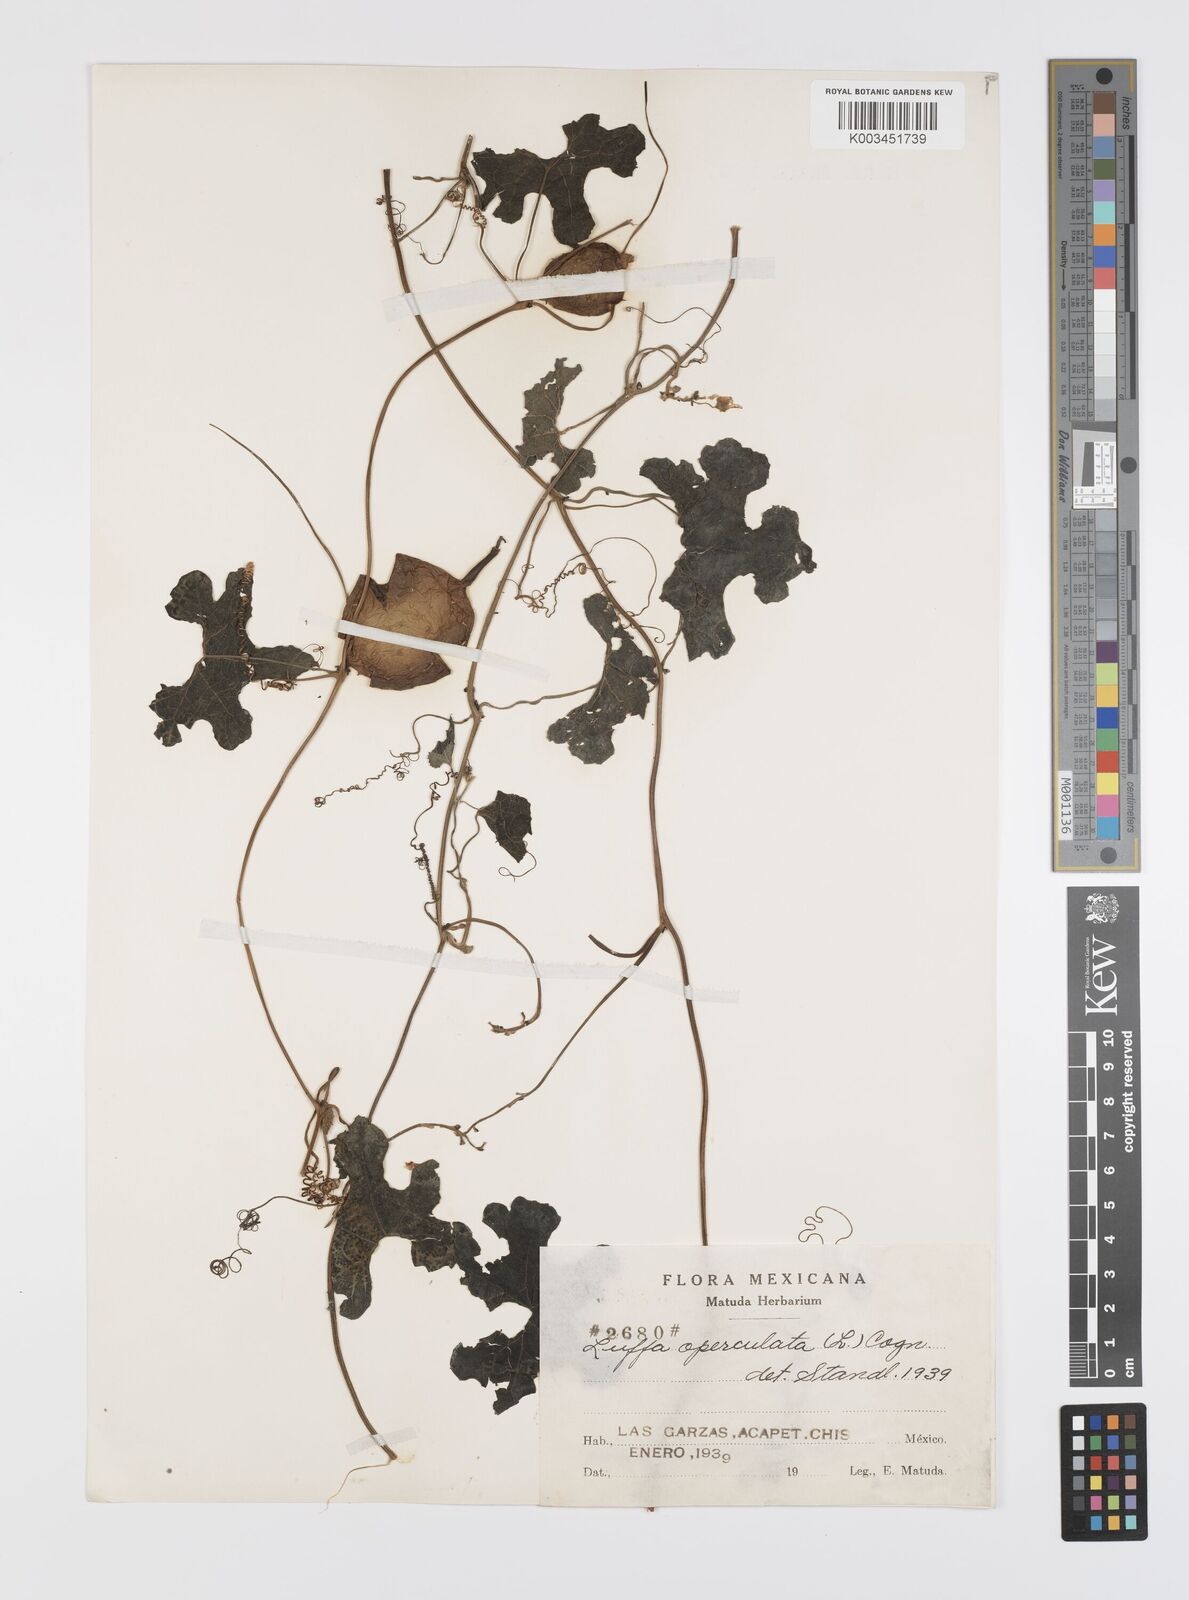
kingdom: Plantae
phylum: Tracheophyta
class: Magnoliopsida
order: Cucurbitales
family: Cucurbitaceae
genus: Luffa
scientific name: Luffa quinquefolia
